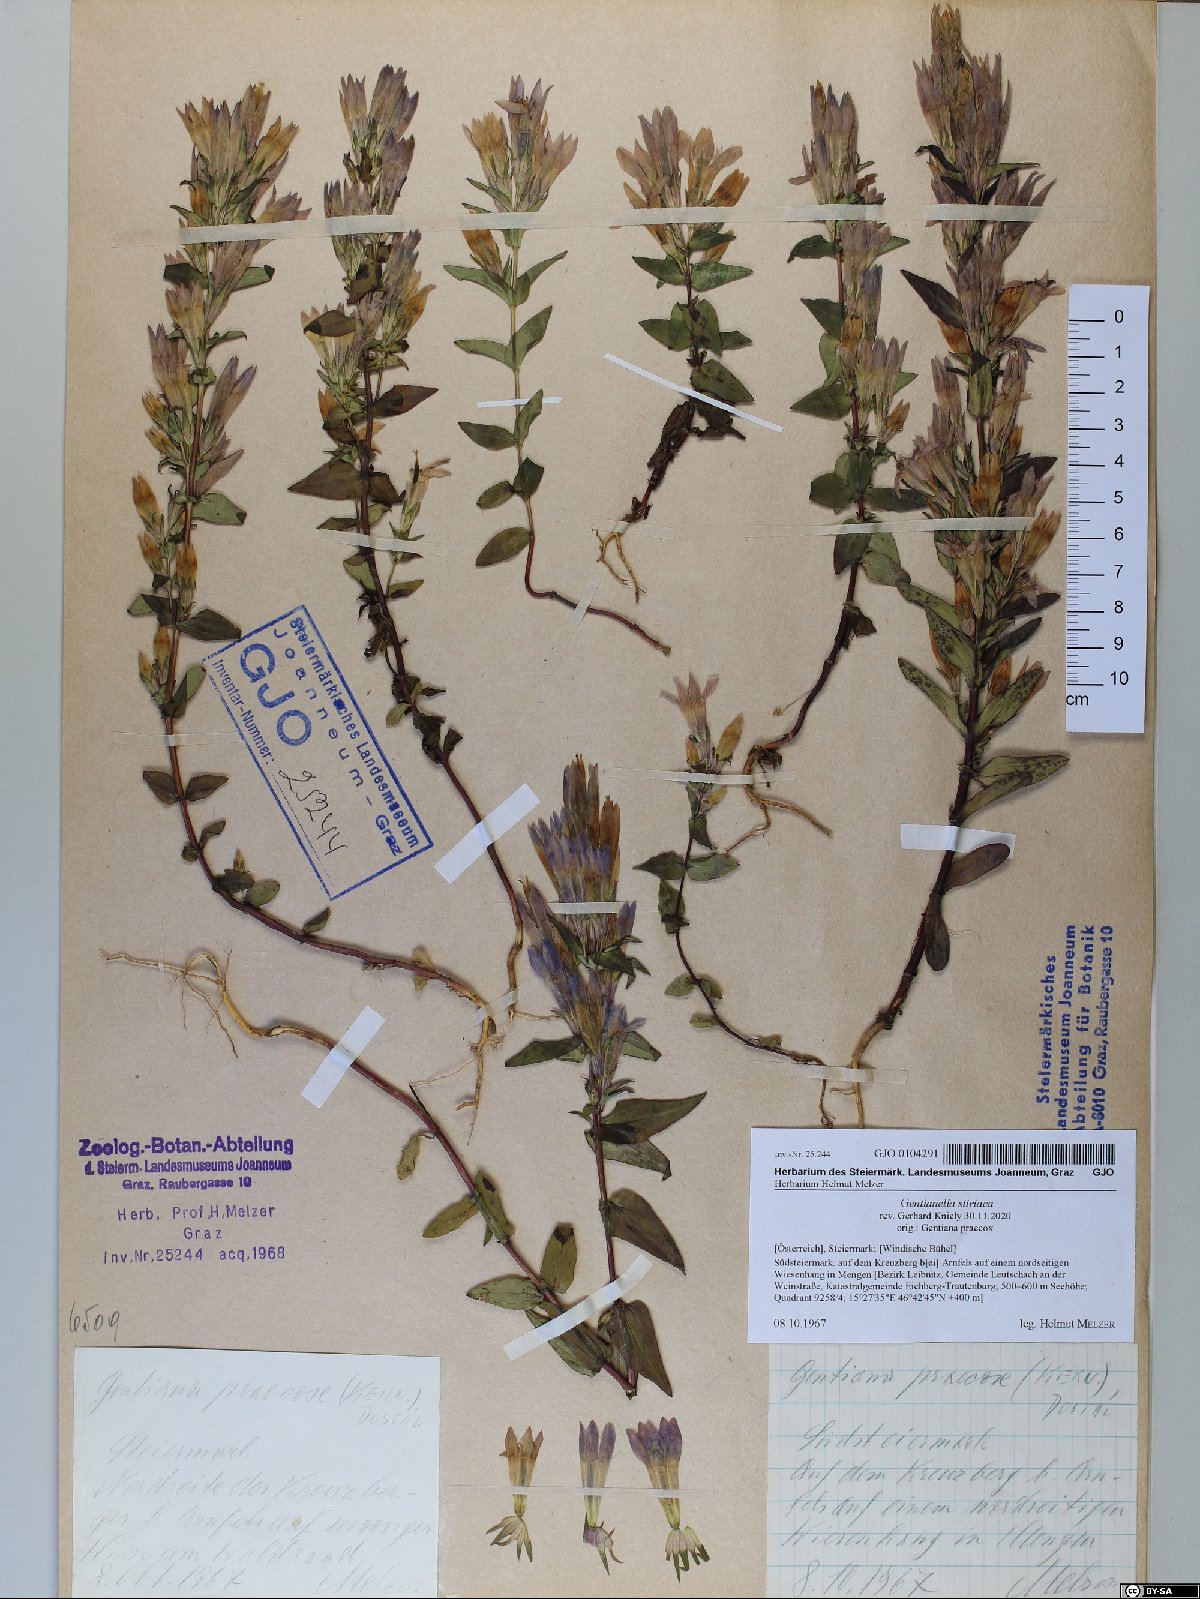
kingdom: Plantae
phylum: Tracheophyta
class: Magnoliopsida
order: Gentianales
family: Gentianaceae
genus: Gentianella
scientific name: Gentianella styriaca
